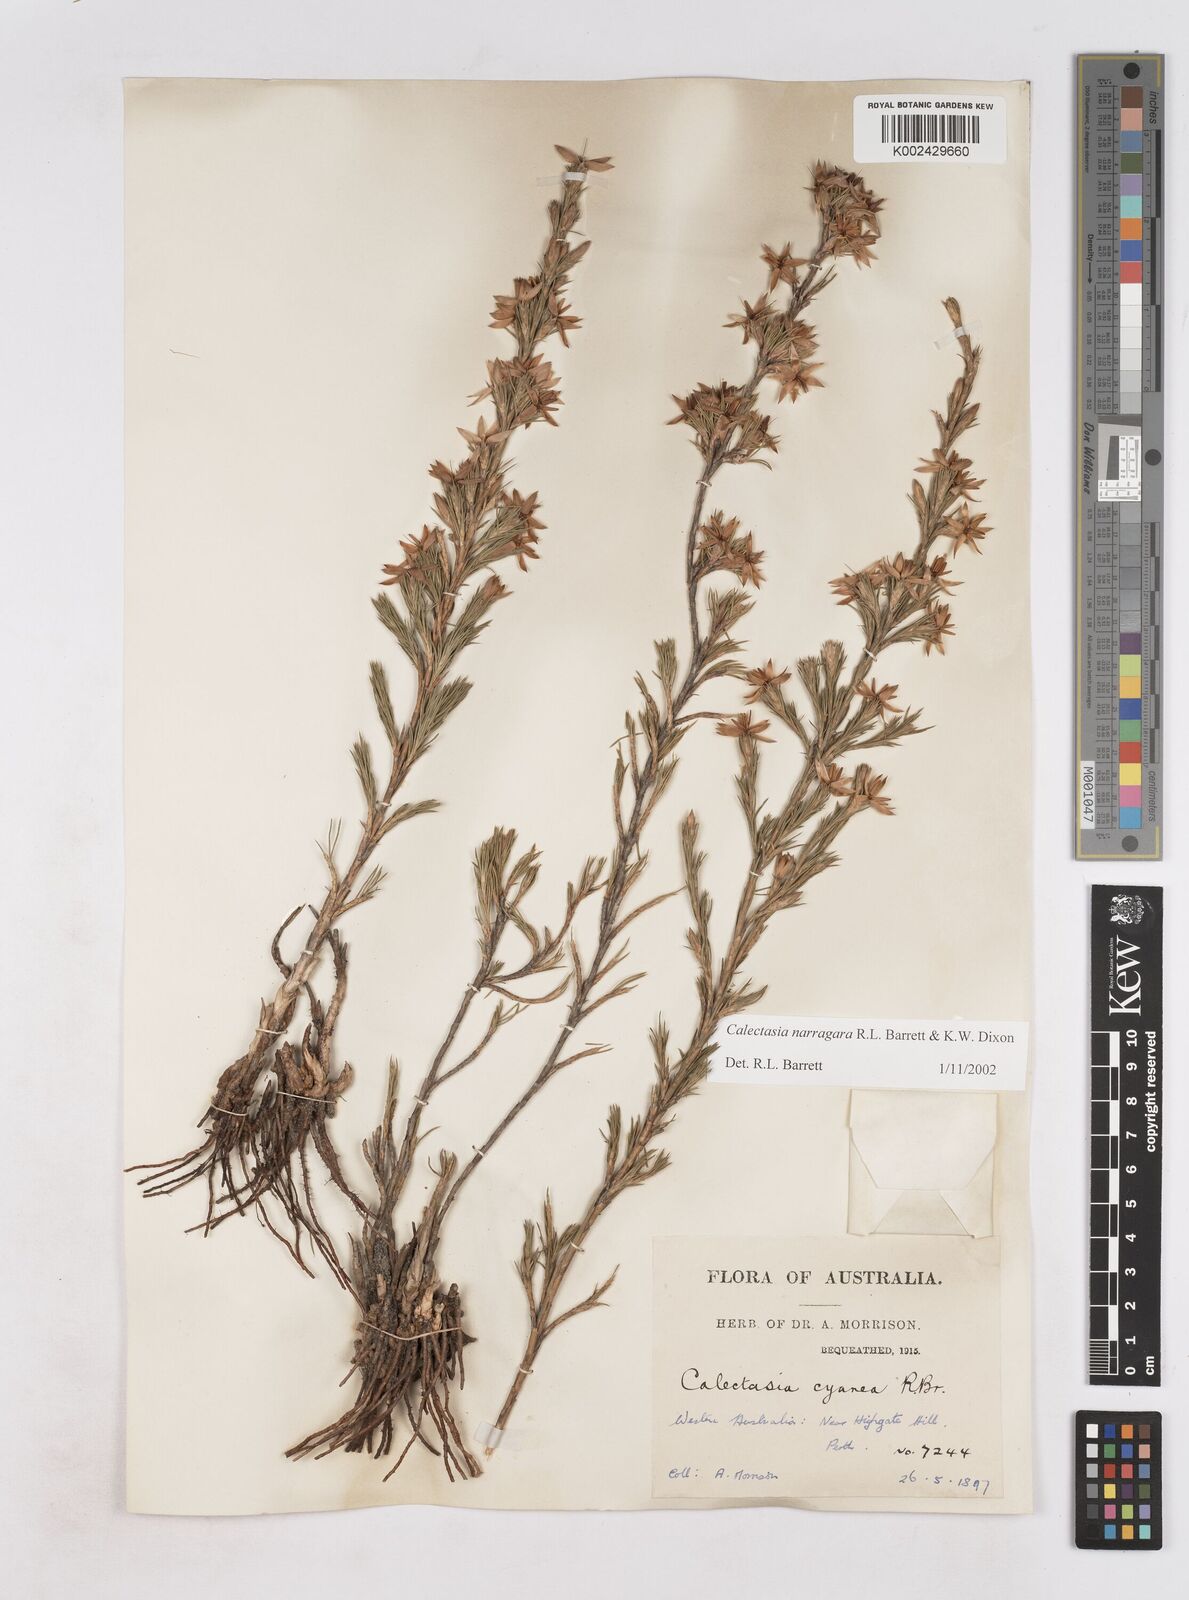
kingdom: Plantae
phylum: Tracheophyta
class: Liliopsida
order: Arecales
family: Dasypogonaceae
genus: Calectasia
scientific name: Calectasia narragara
